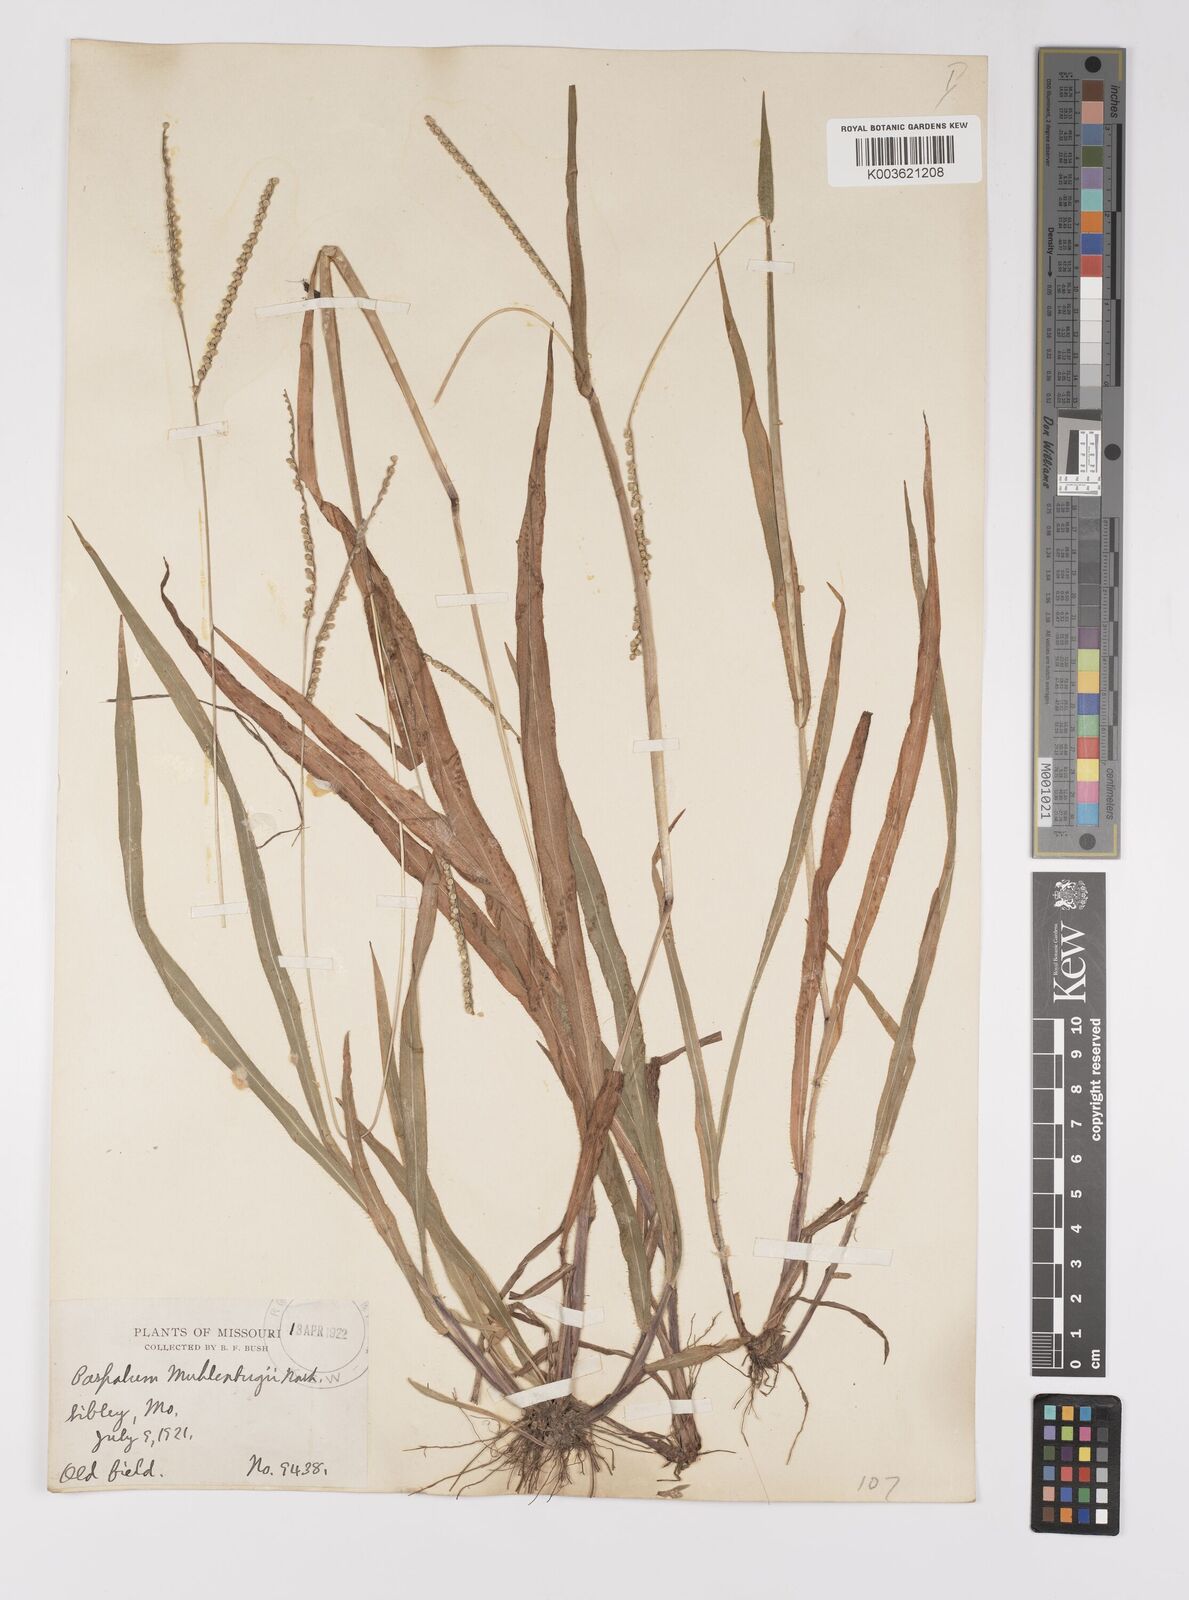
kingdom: Plantae
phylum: Tracheophyta
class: Liliopsida
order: Poales
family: Poaceae
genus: Paspalum
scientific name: Paspalum setaceum
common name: Slender paspalum
